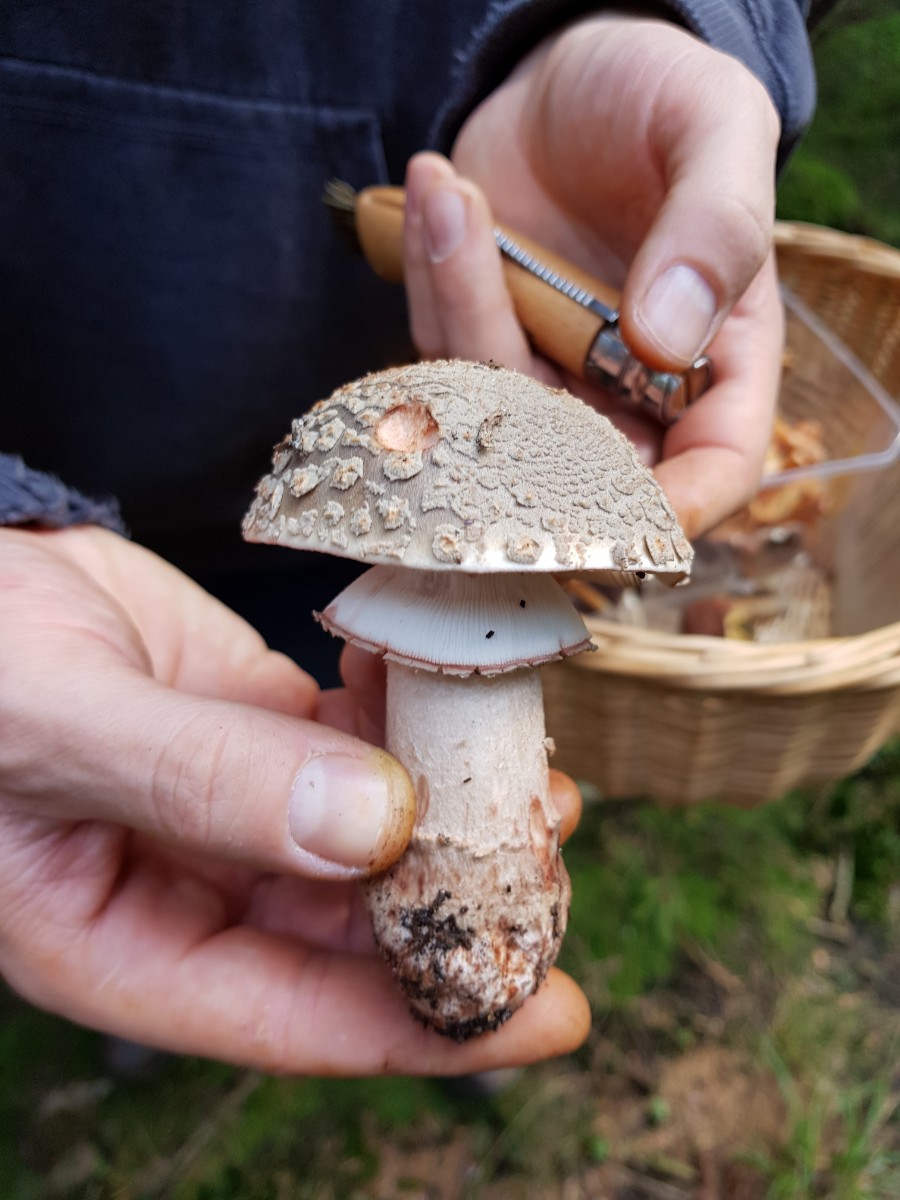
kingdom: Fungi
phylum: Basidiomycota
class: Agaricomycetes
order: Agaricales
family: Amanitaceae
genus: Amanita
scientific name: Amanita rubescens
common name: rødmende fluesvamp
